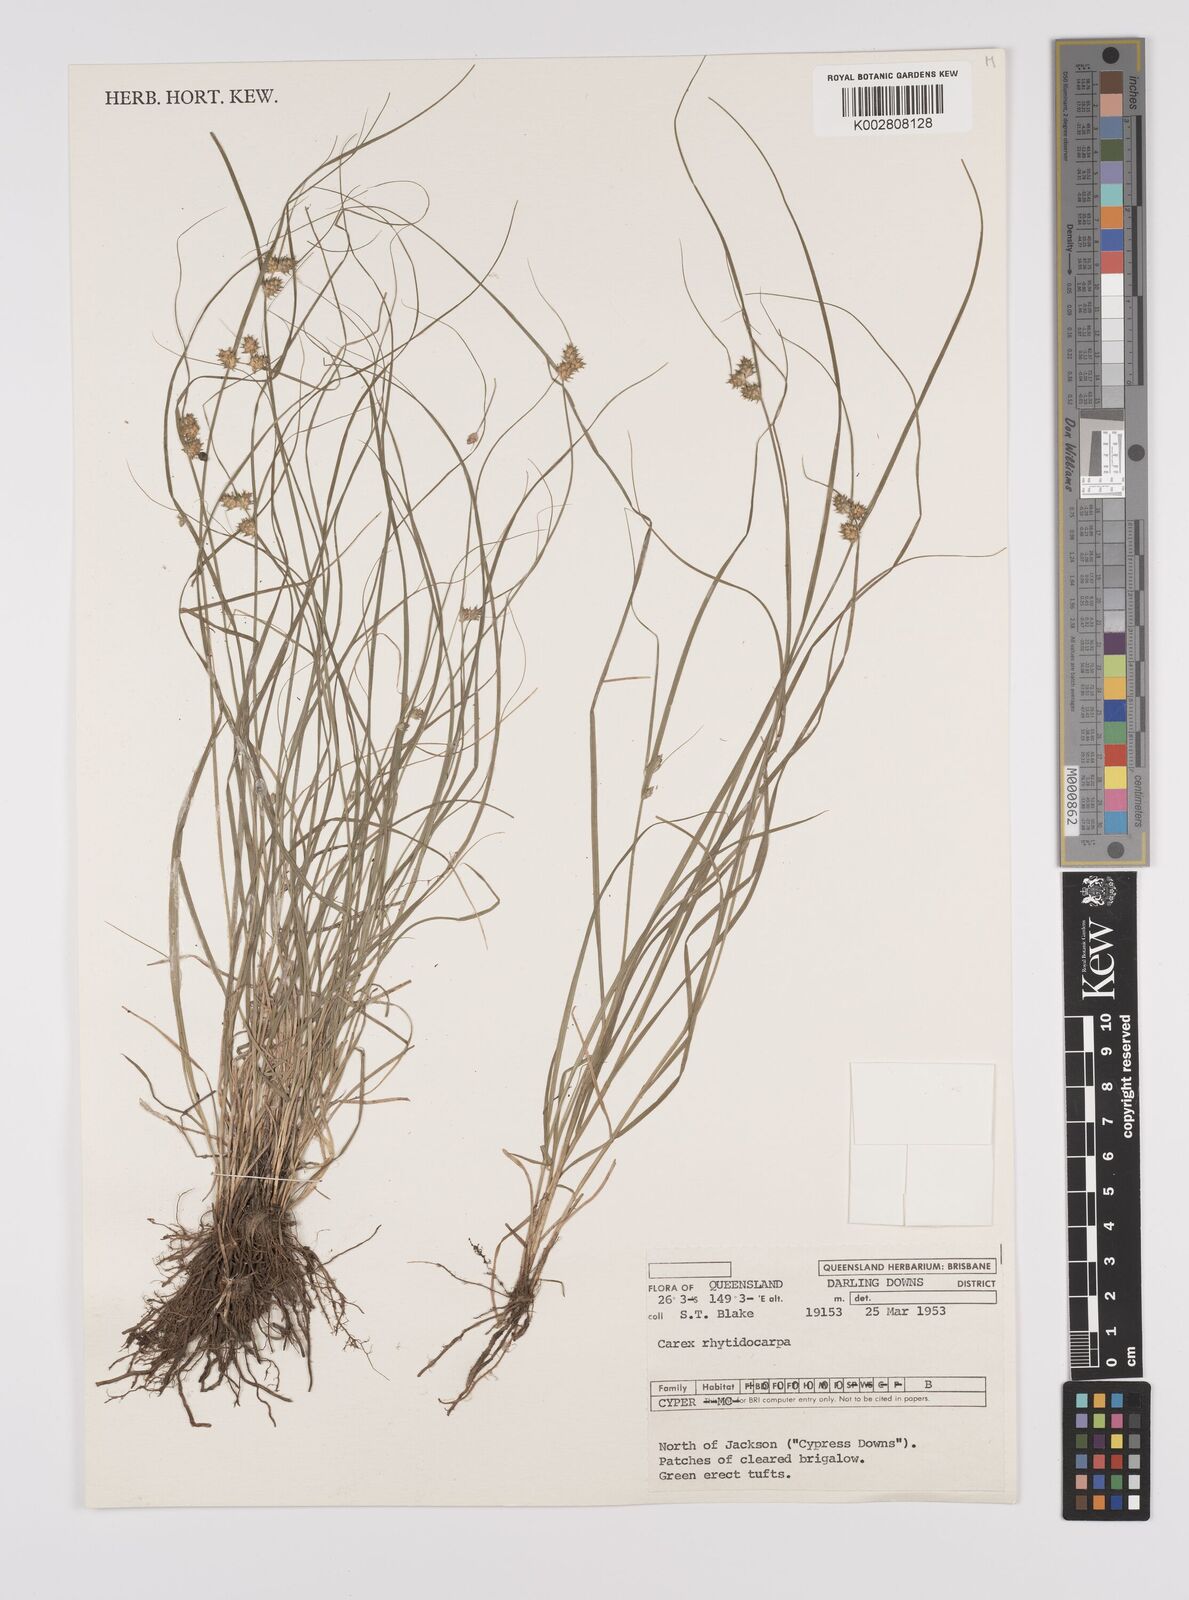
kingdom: Plantae
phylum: Tracheophyta
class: Liliopsida
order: Poales
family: Cyperaceae
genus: Carex
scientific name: Carex inversa
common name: Knob sedge
